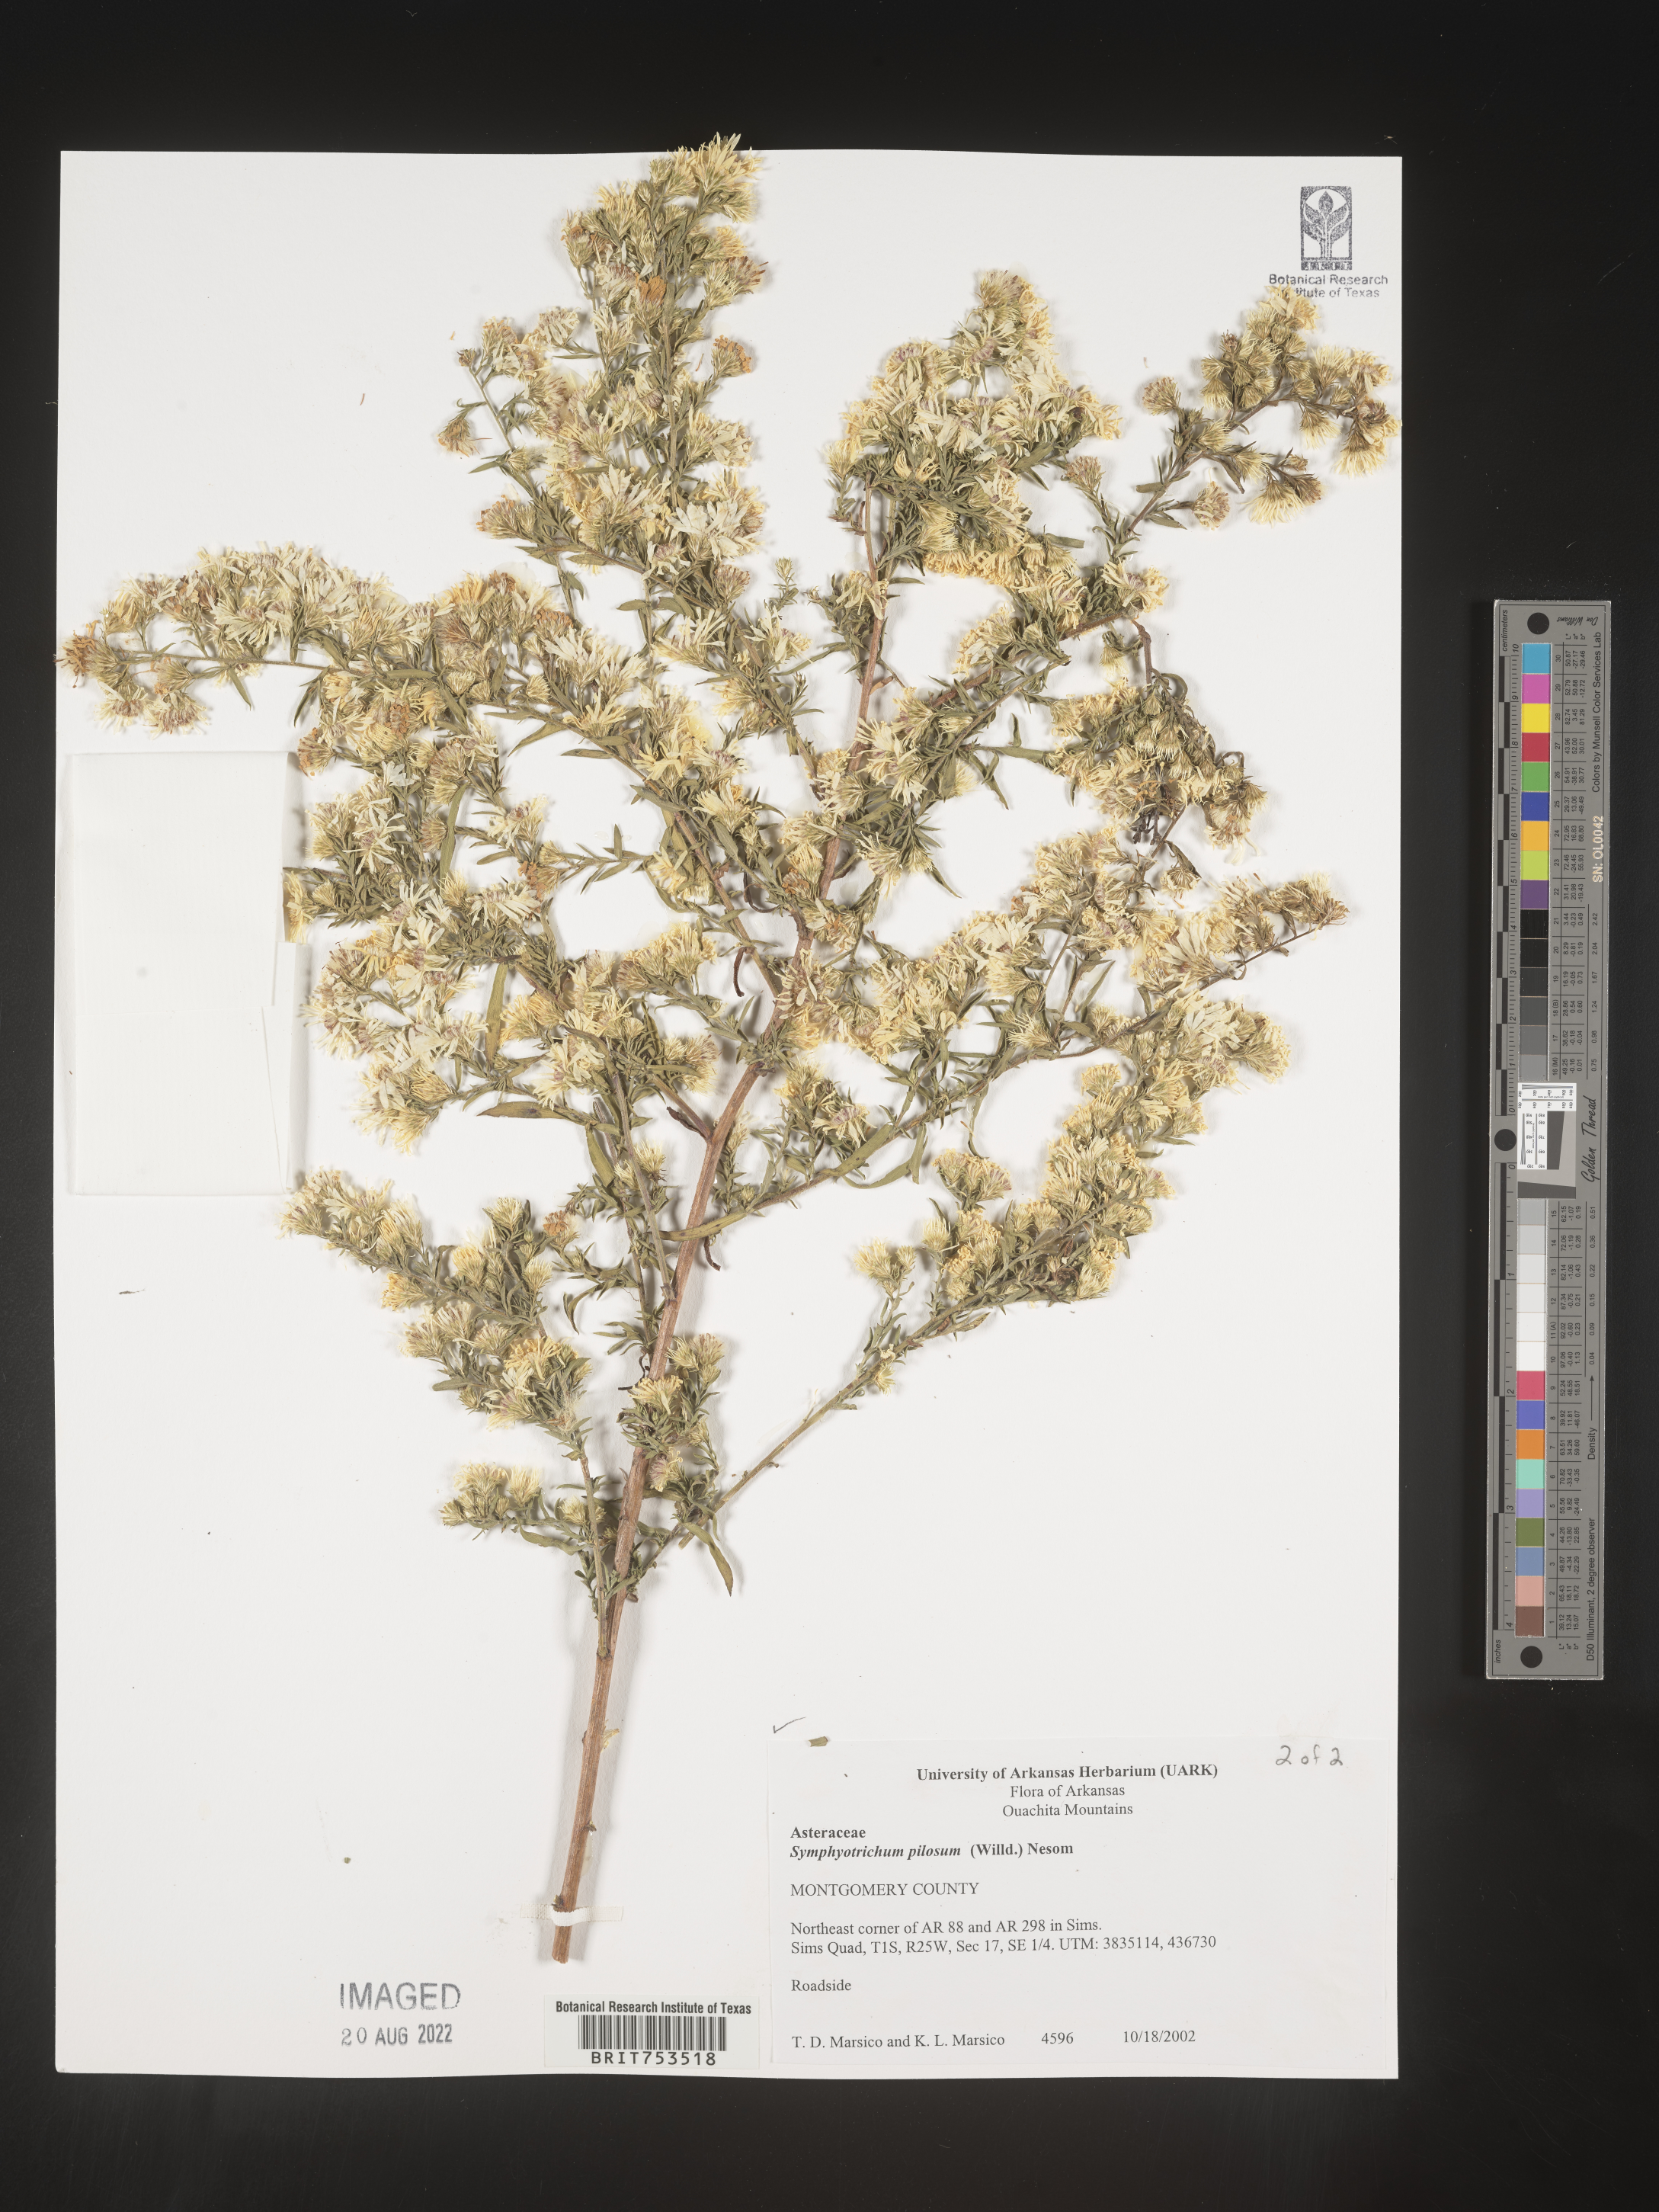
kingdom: Plantae
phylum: Tracheophyta
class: Magnoliopsida
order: Asterales
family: Asteraceae
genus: Symphyotrichum
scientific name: Symphyotrichum pilosum
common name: Awl aster
